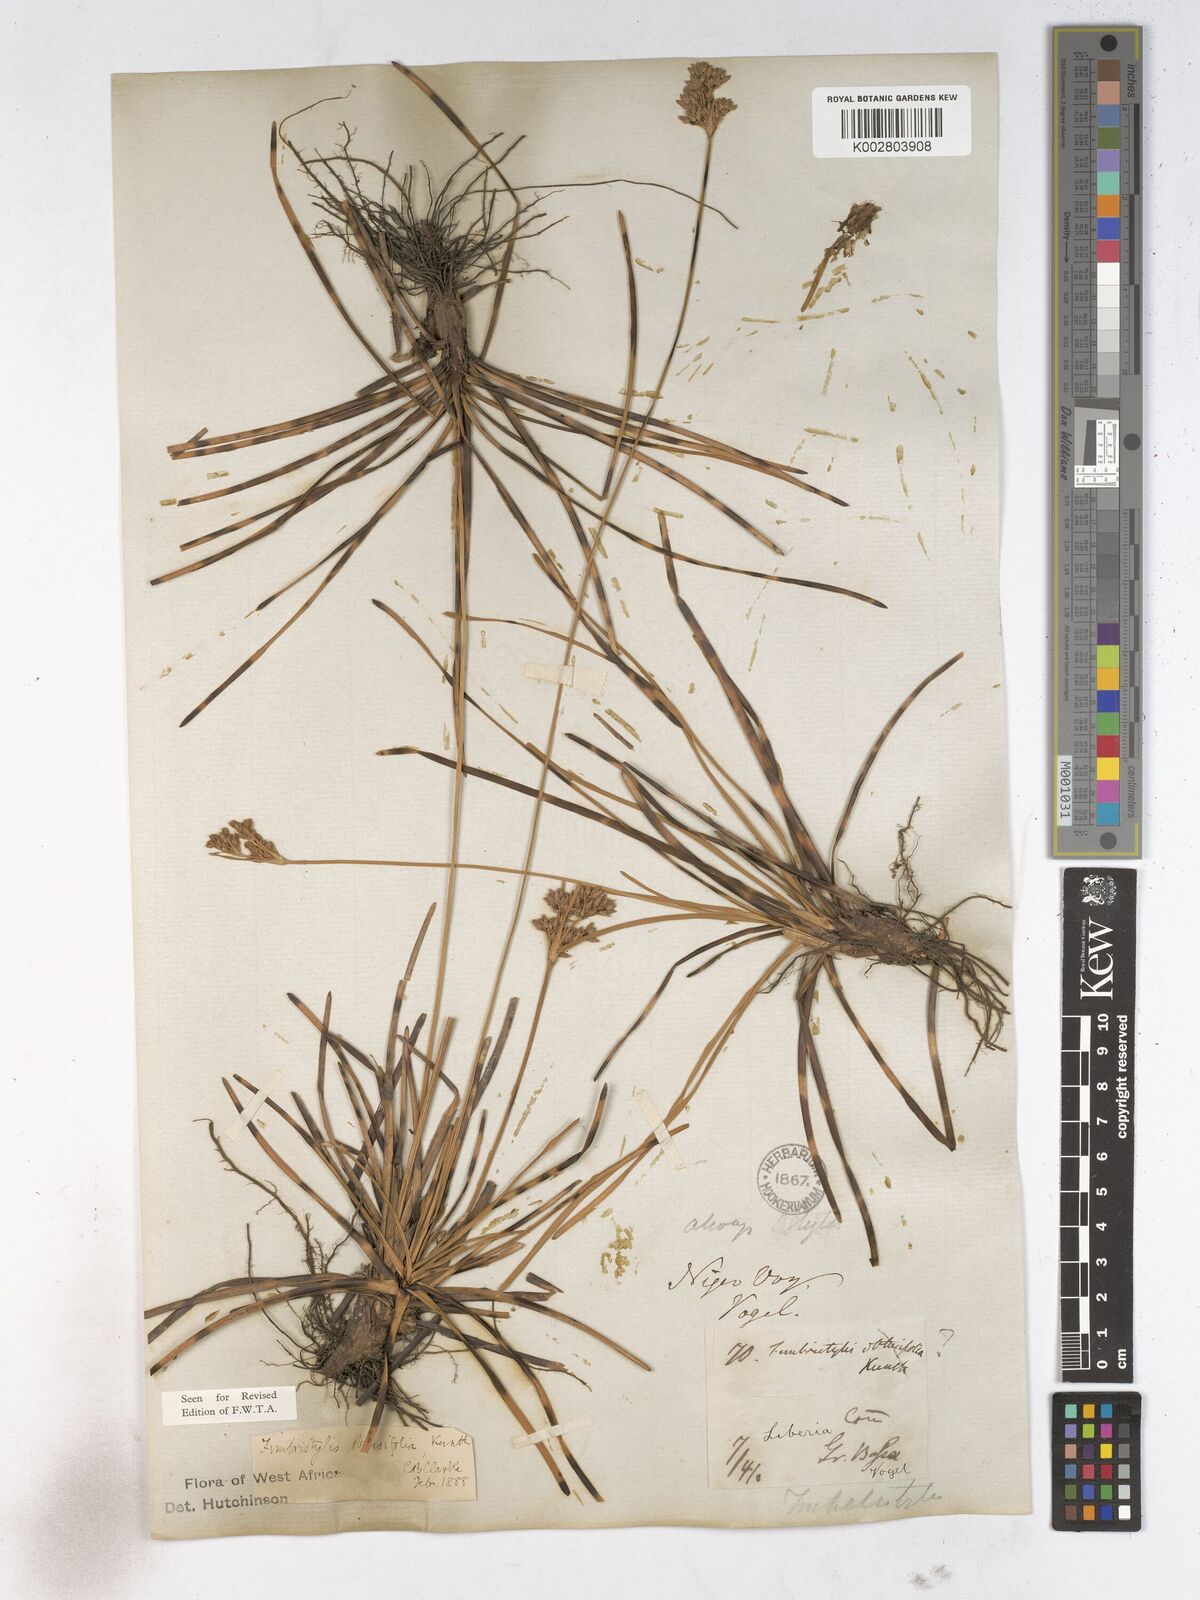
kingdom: Plantae
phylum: Tracheophyta
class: Liliopsida
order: Poales
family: Cyperaceae
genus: Fimbristylis
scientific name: Fimbristylis cymosa
